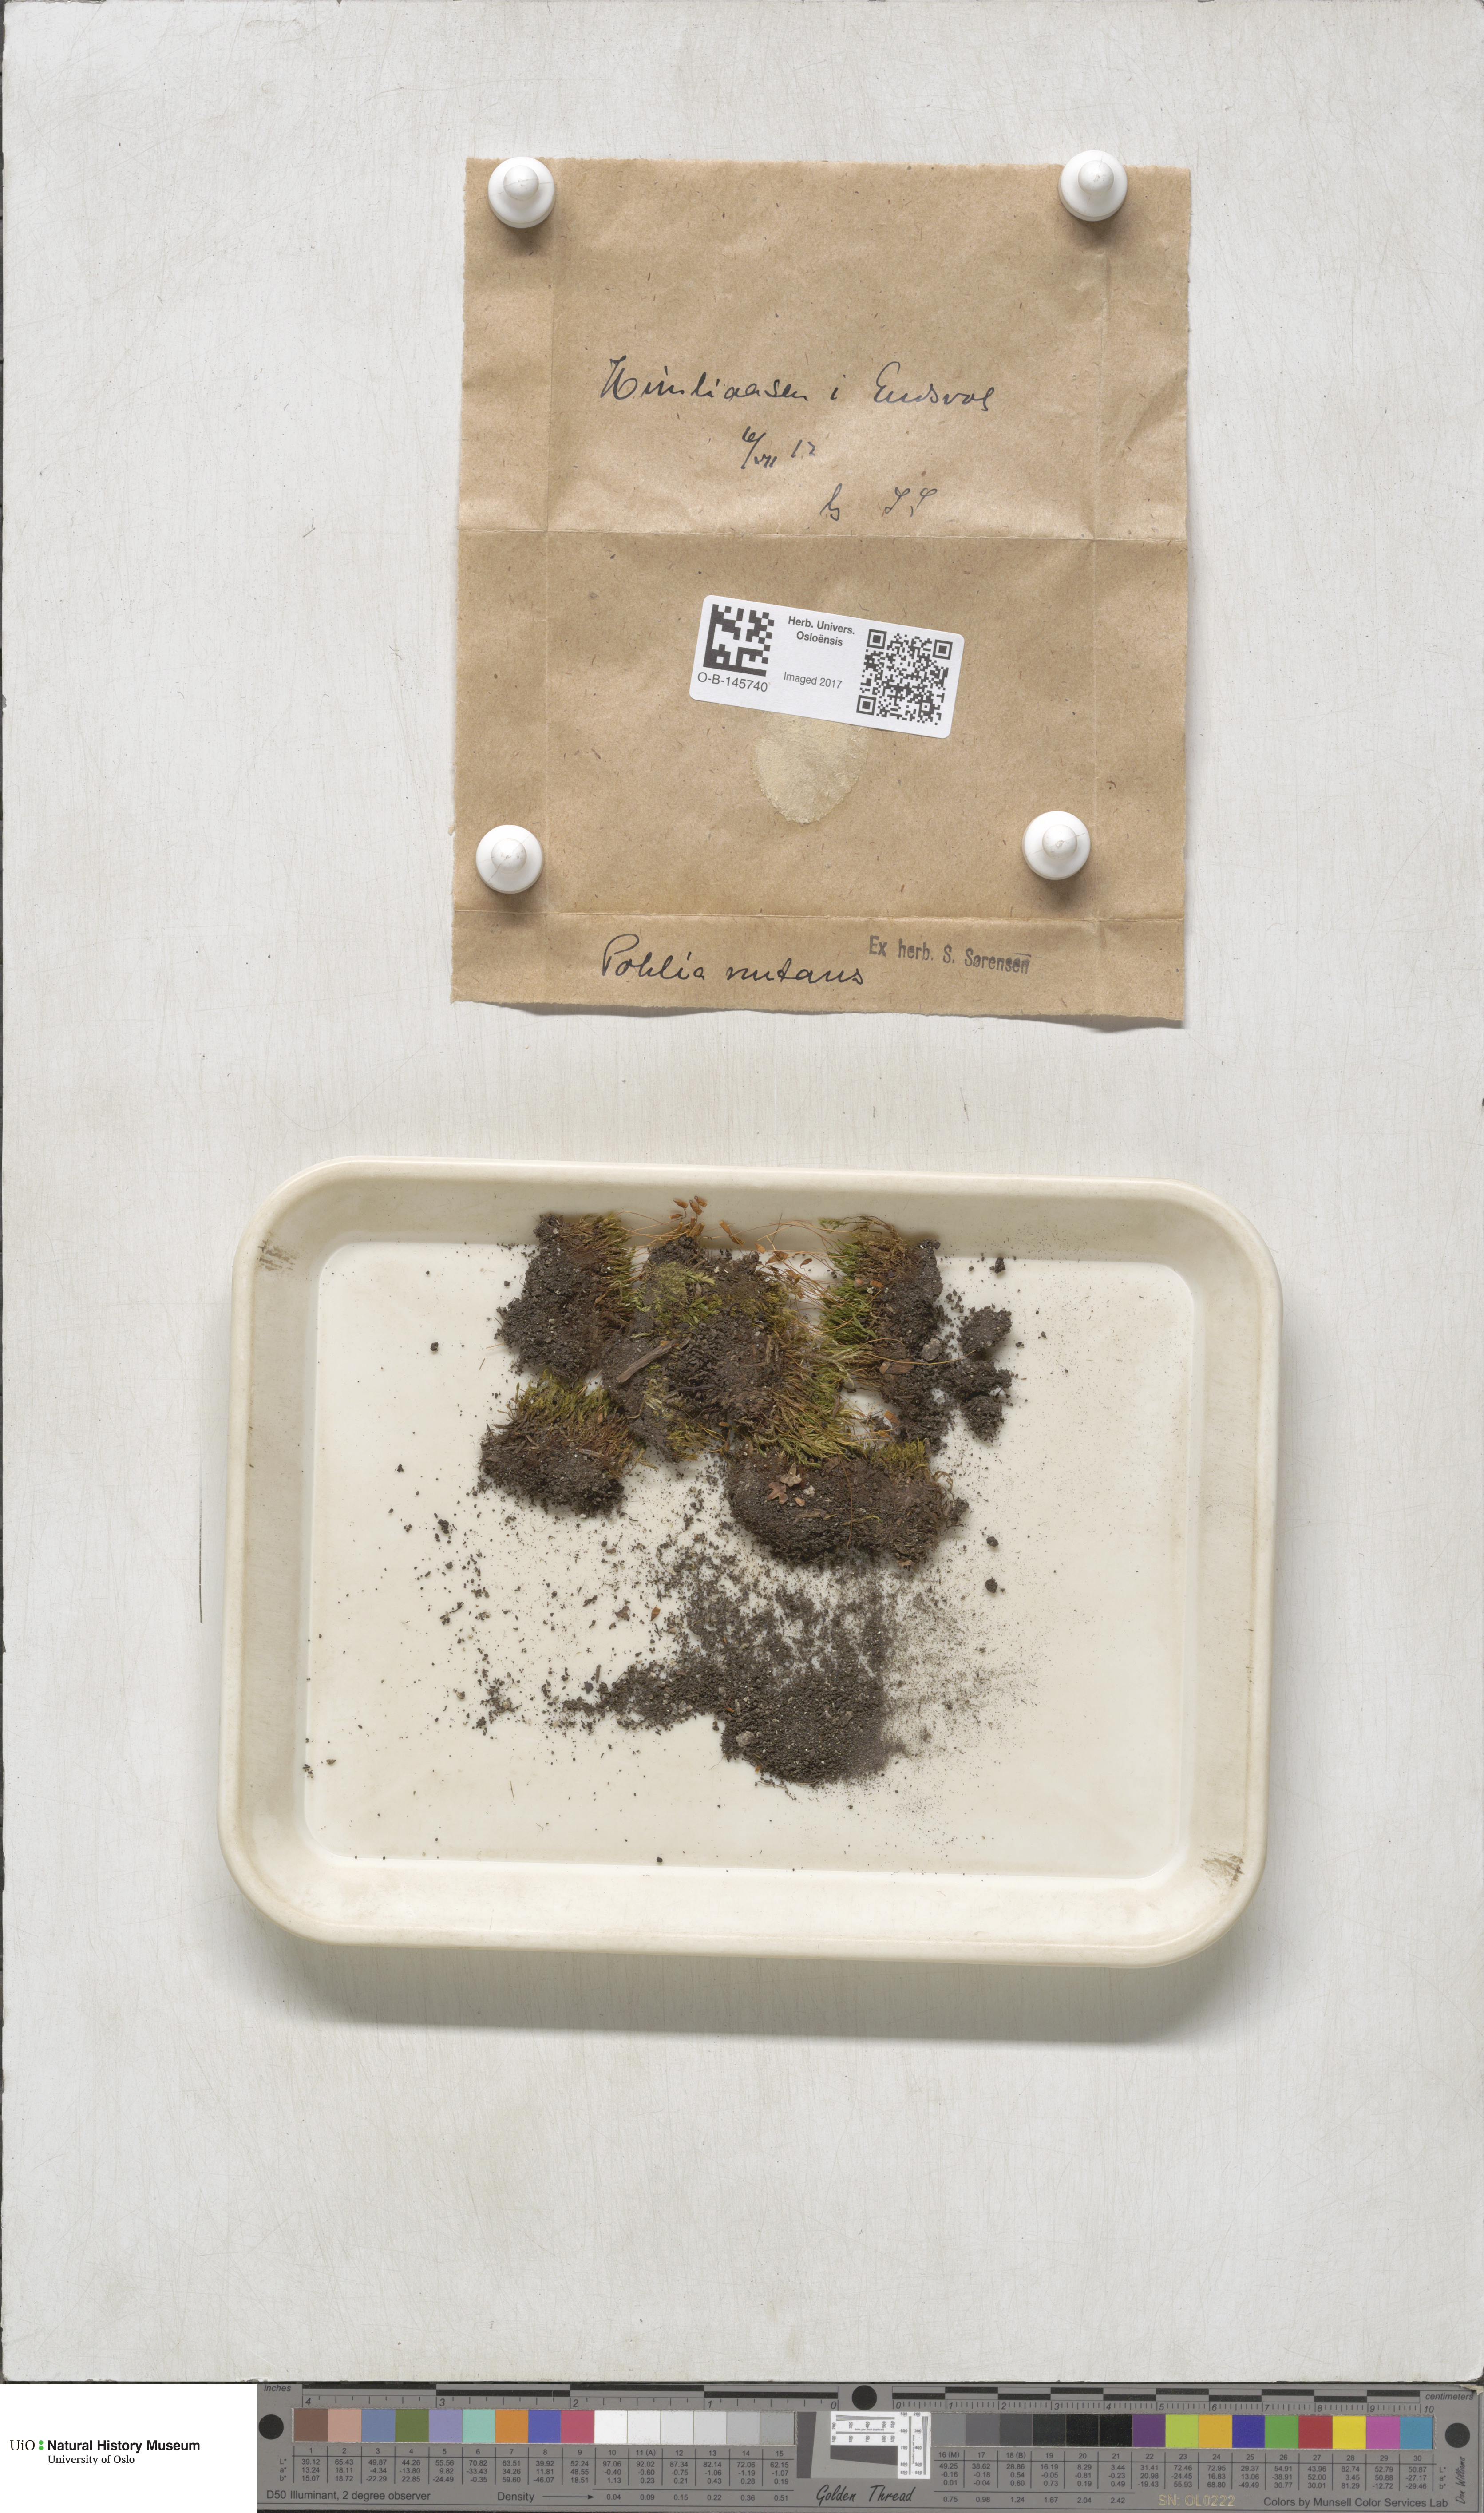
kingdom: Plantae
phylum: Bryophyta
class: Bryopsida
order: Bryales
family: Mniaceae
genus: Pohlia
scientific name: Pohlia nutans
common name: Nodding thread-moss
